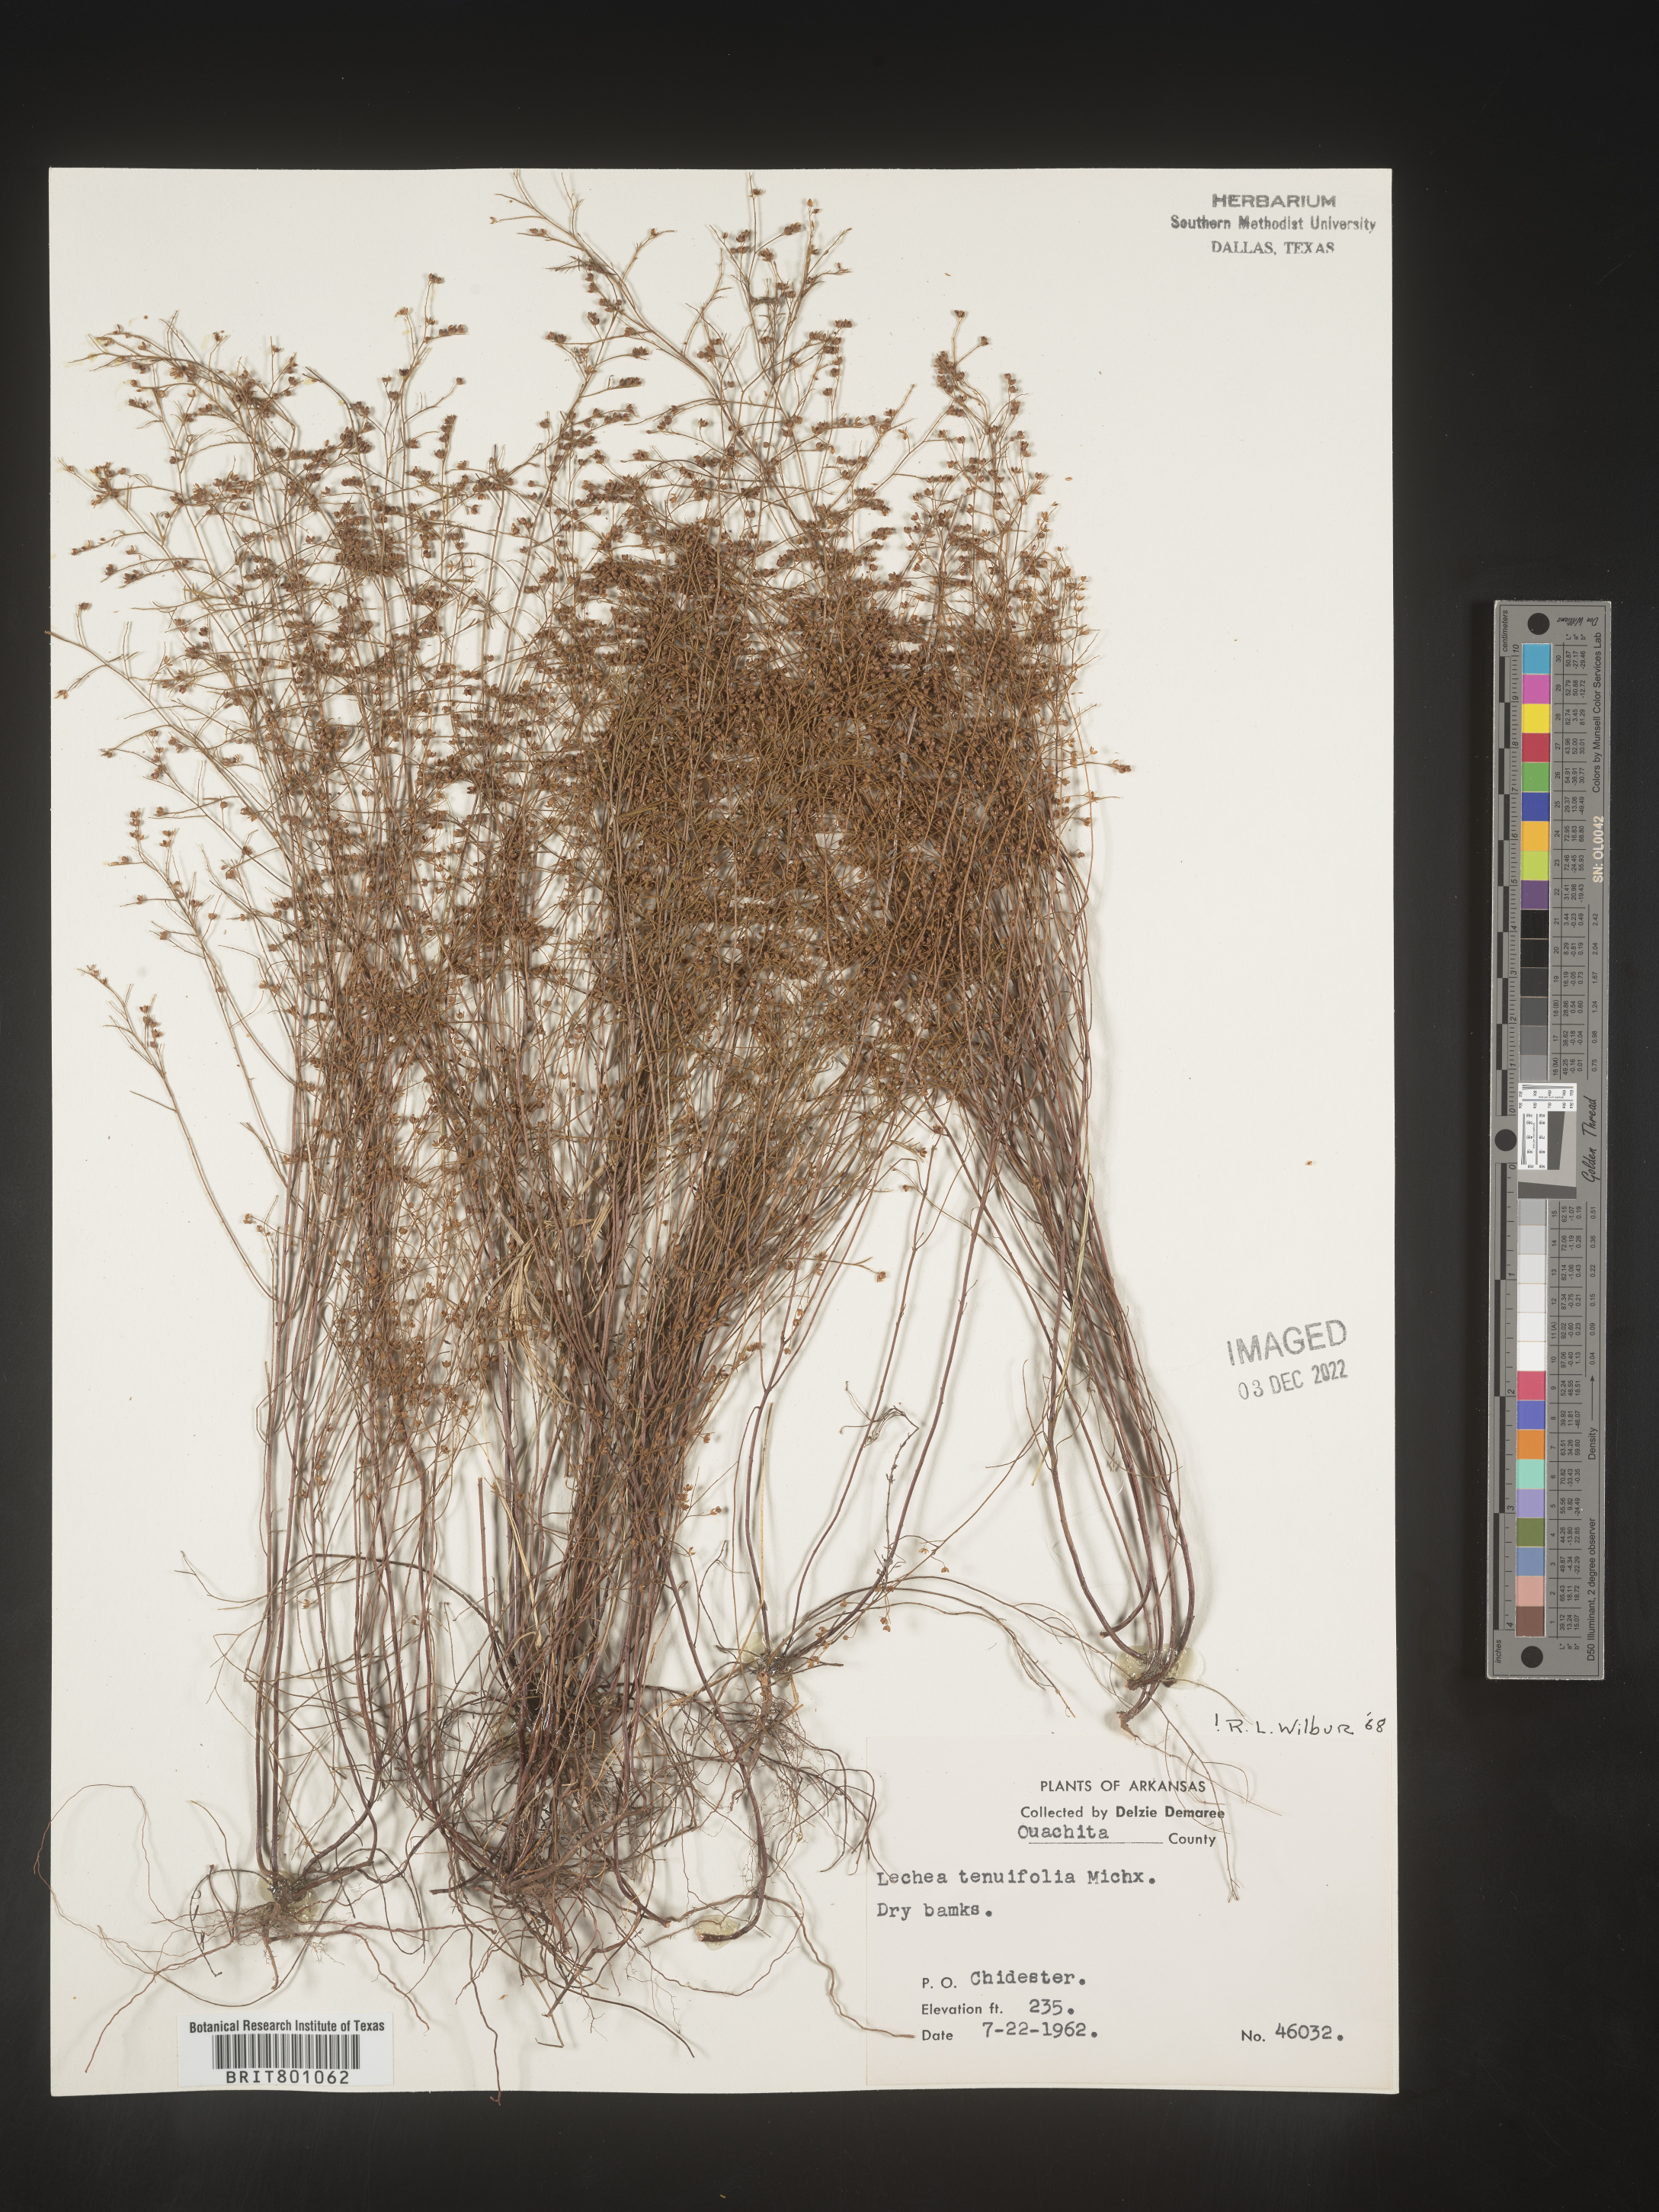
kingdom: Plantae
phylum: Tracheophyta
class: Magnoliopsida
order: Malvales
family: Cistaceae
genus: Lechea
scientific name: Lechea tenuifolia
